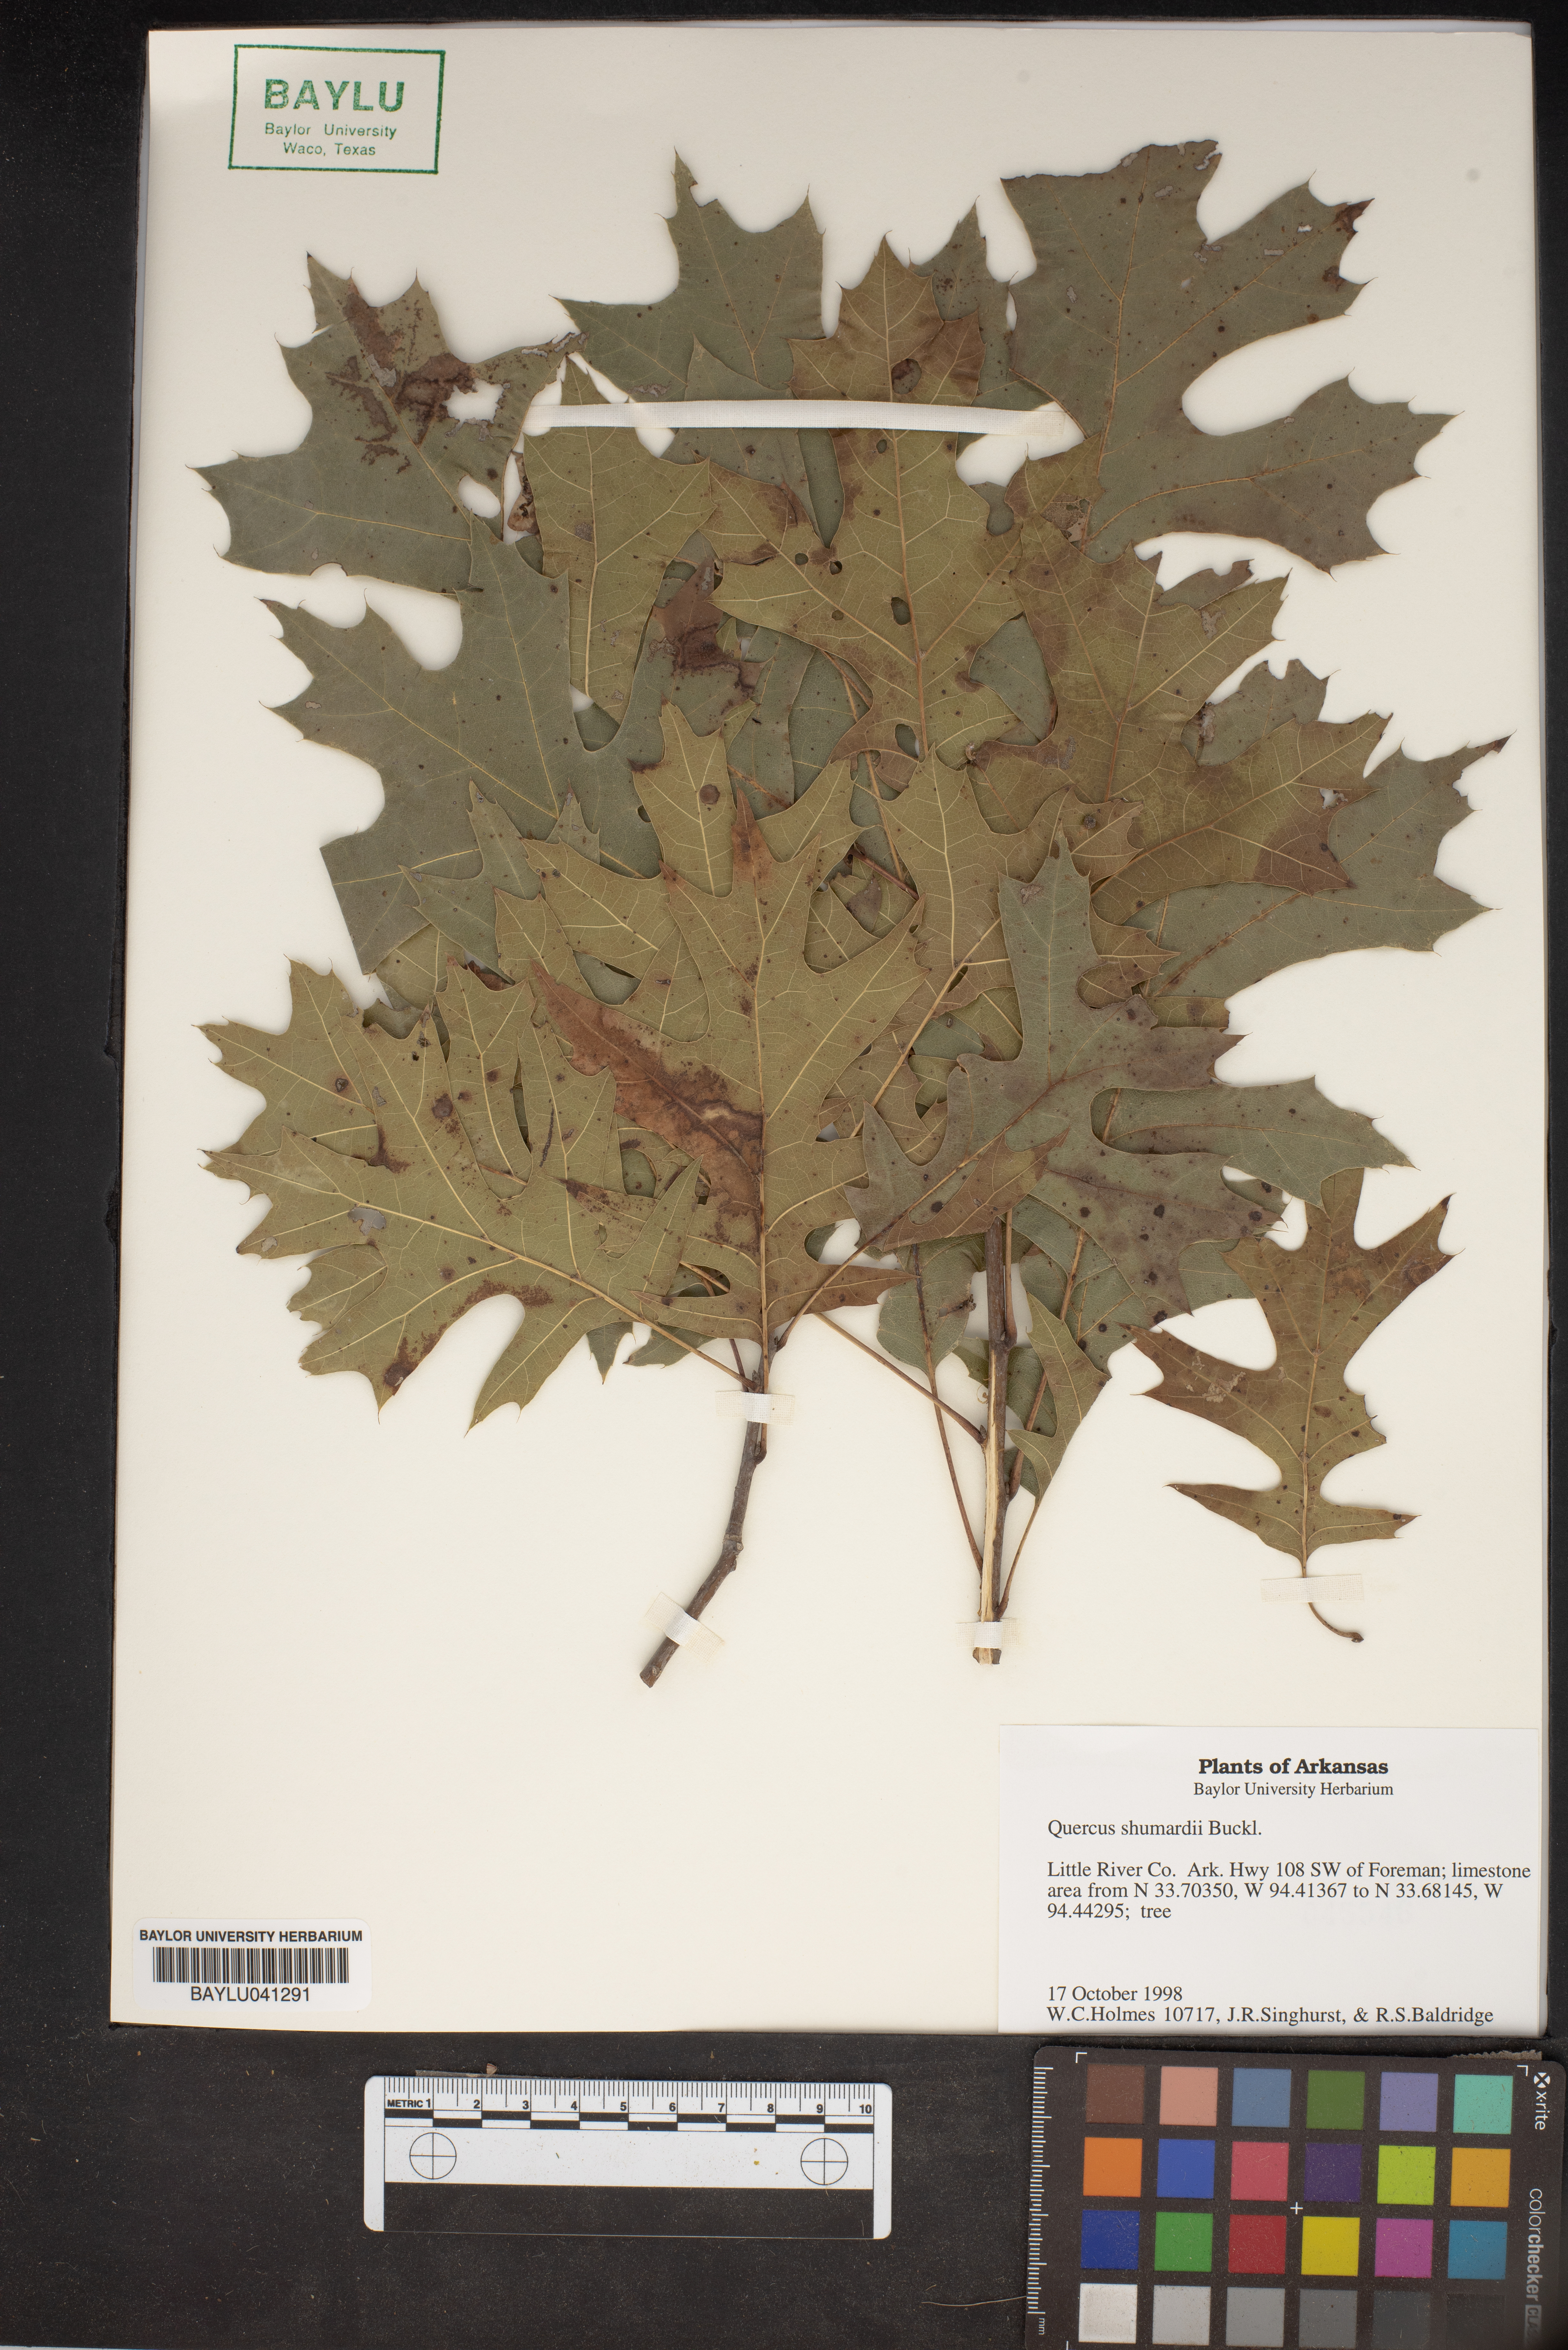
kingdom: Plantae
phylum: Tracheophyta
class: Magnoliopsida
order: Fagales
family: Fagaceae
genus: Quercus
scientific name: Quercus shumardii
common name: Shumard oak
